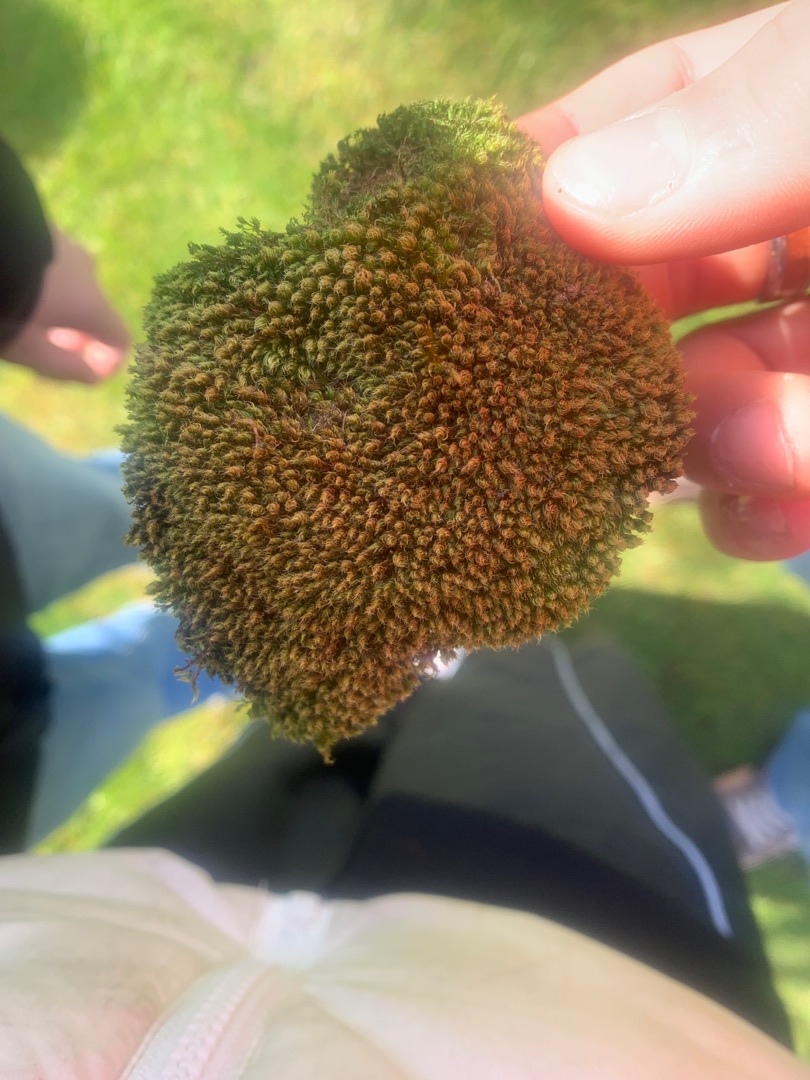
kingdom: Plantae
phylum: Bryophyta
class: Bryopsida
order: Bryales
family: Bryaceae
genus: Rosulabryum
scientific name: Rosulabryum capillare
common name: Hårspidset bryum
